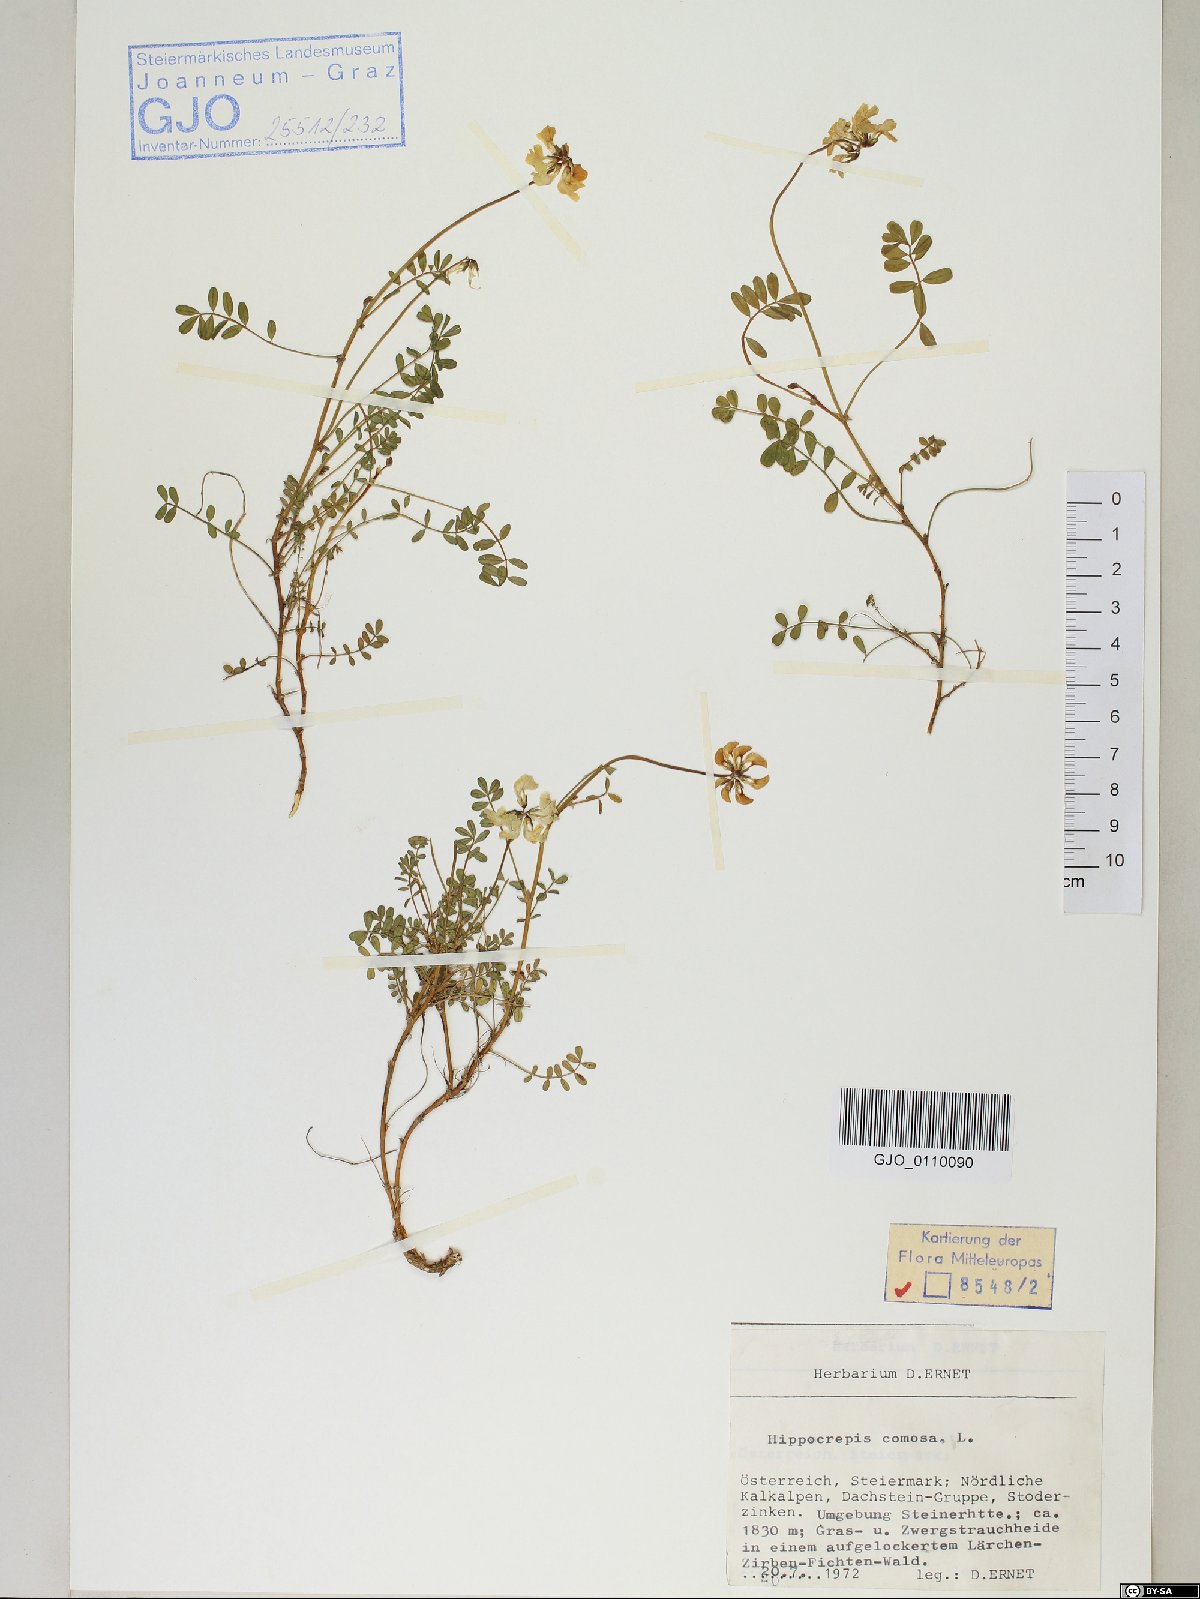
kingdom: Plantae
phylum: Tracheophyta
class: Magnoliopsida
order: Fabales
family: Fabaceae
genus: Hippocrepis
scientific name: Hippocrepis comosa
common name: Horseshoe vetch
